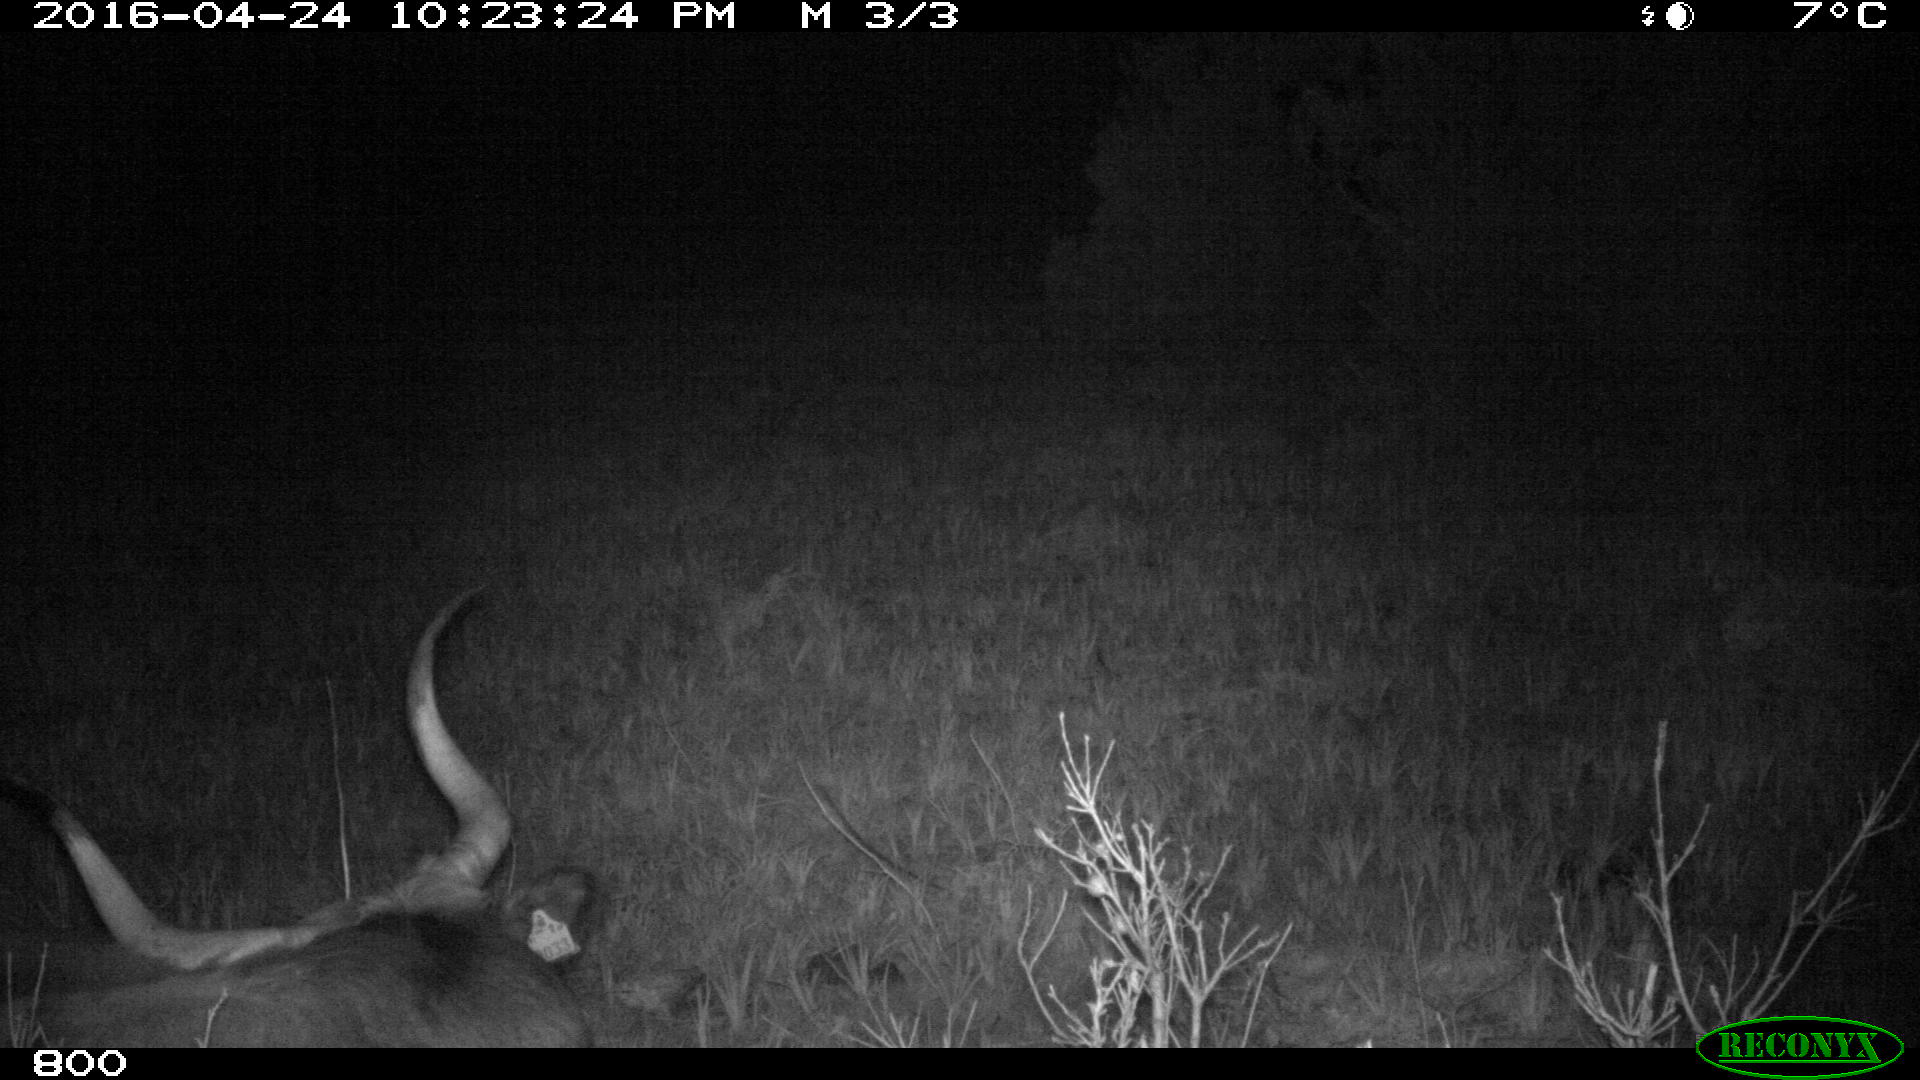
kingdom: Animalia
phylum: Chordata
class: Mammalia
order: Artiodactyla
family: Bovidae
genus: Bos
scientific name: Bos taurus
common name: Domesticated cattle
